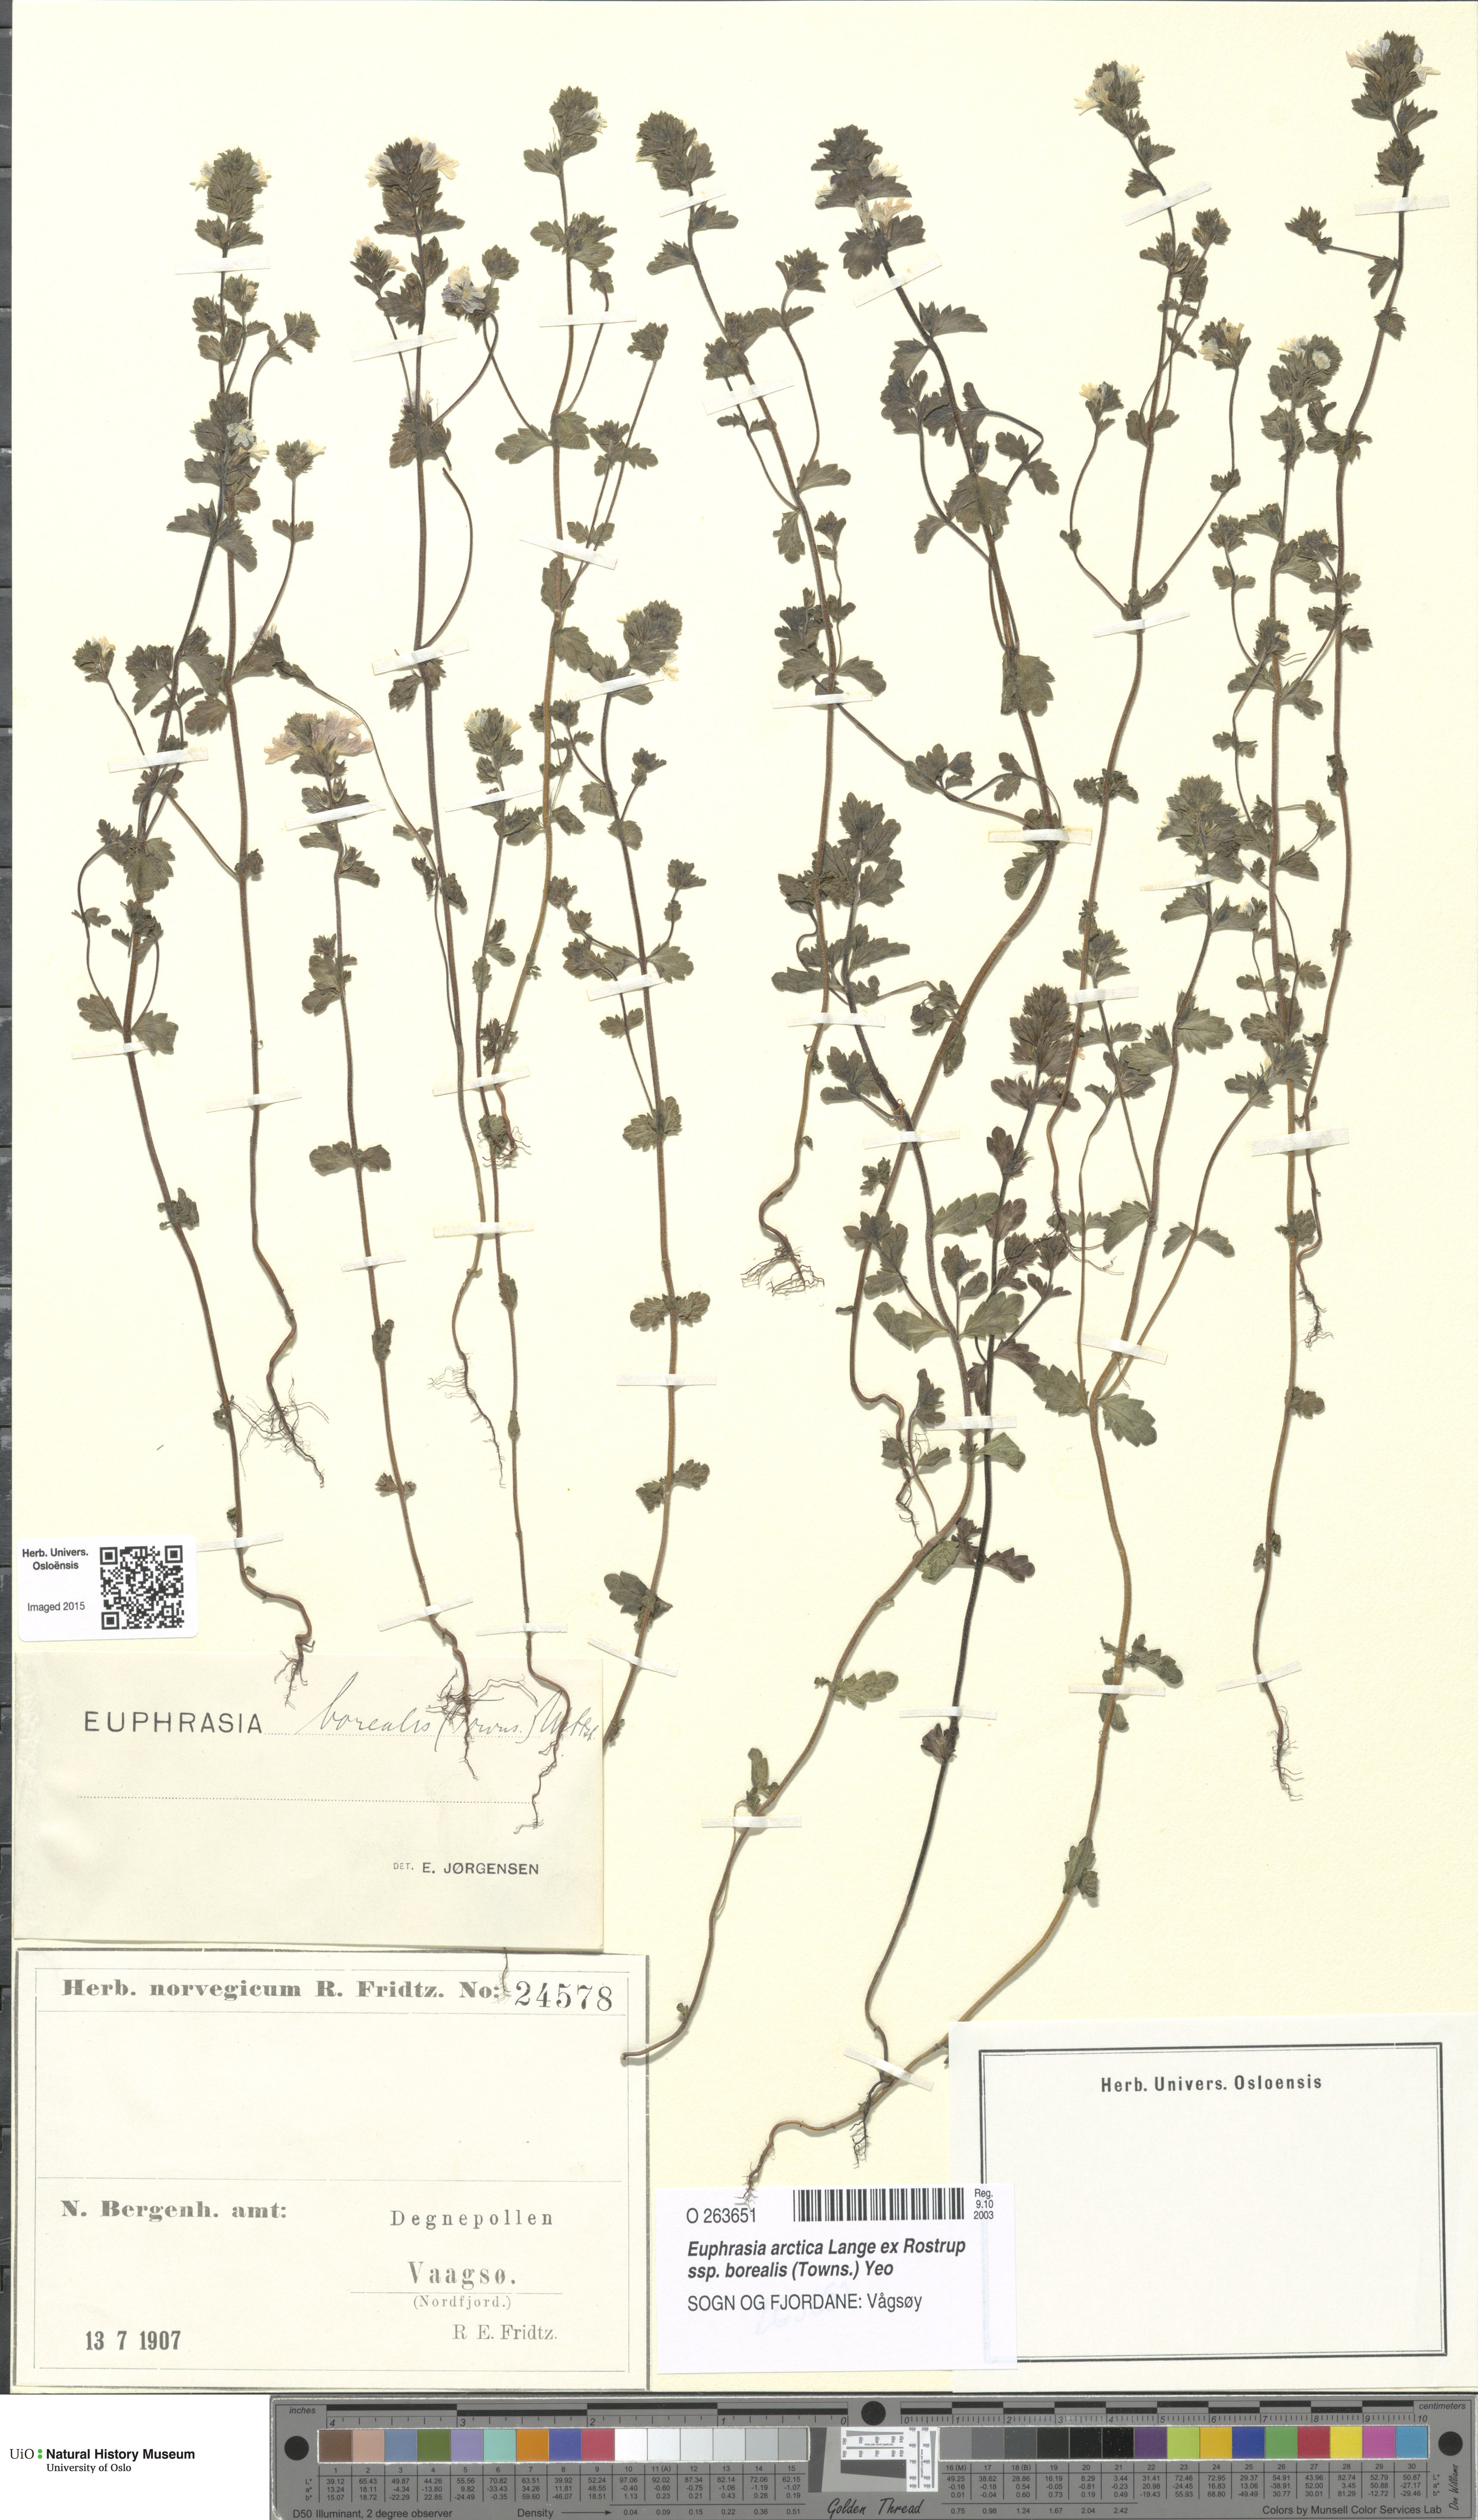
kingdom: Plantae
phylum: Tracheophyta
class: Magnoliopsida
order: Lamiales
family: Orobanchaceae
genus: Euphrasia
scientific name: Euphrasia arctica
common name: An eyebright
